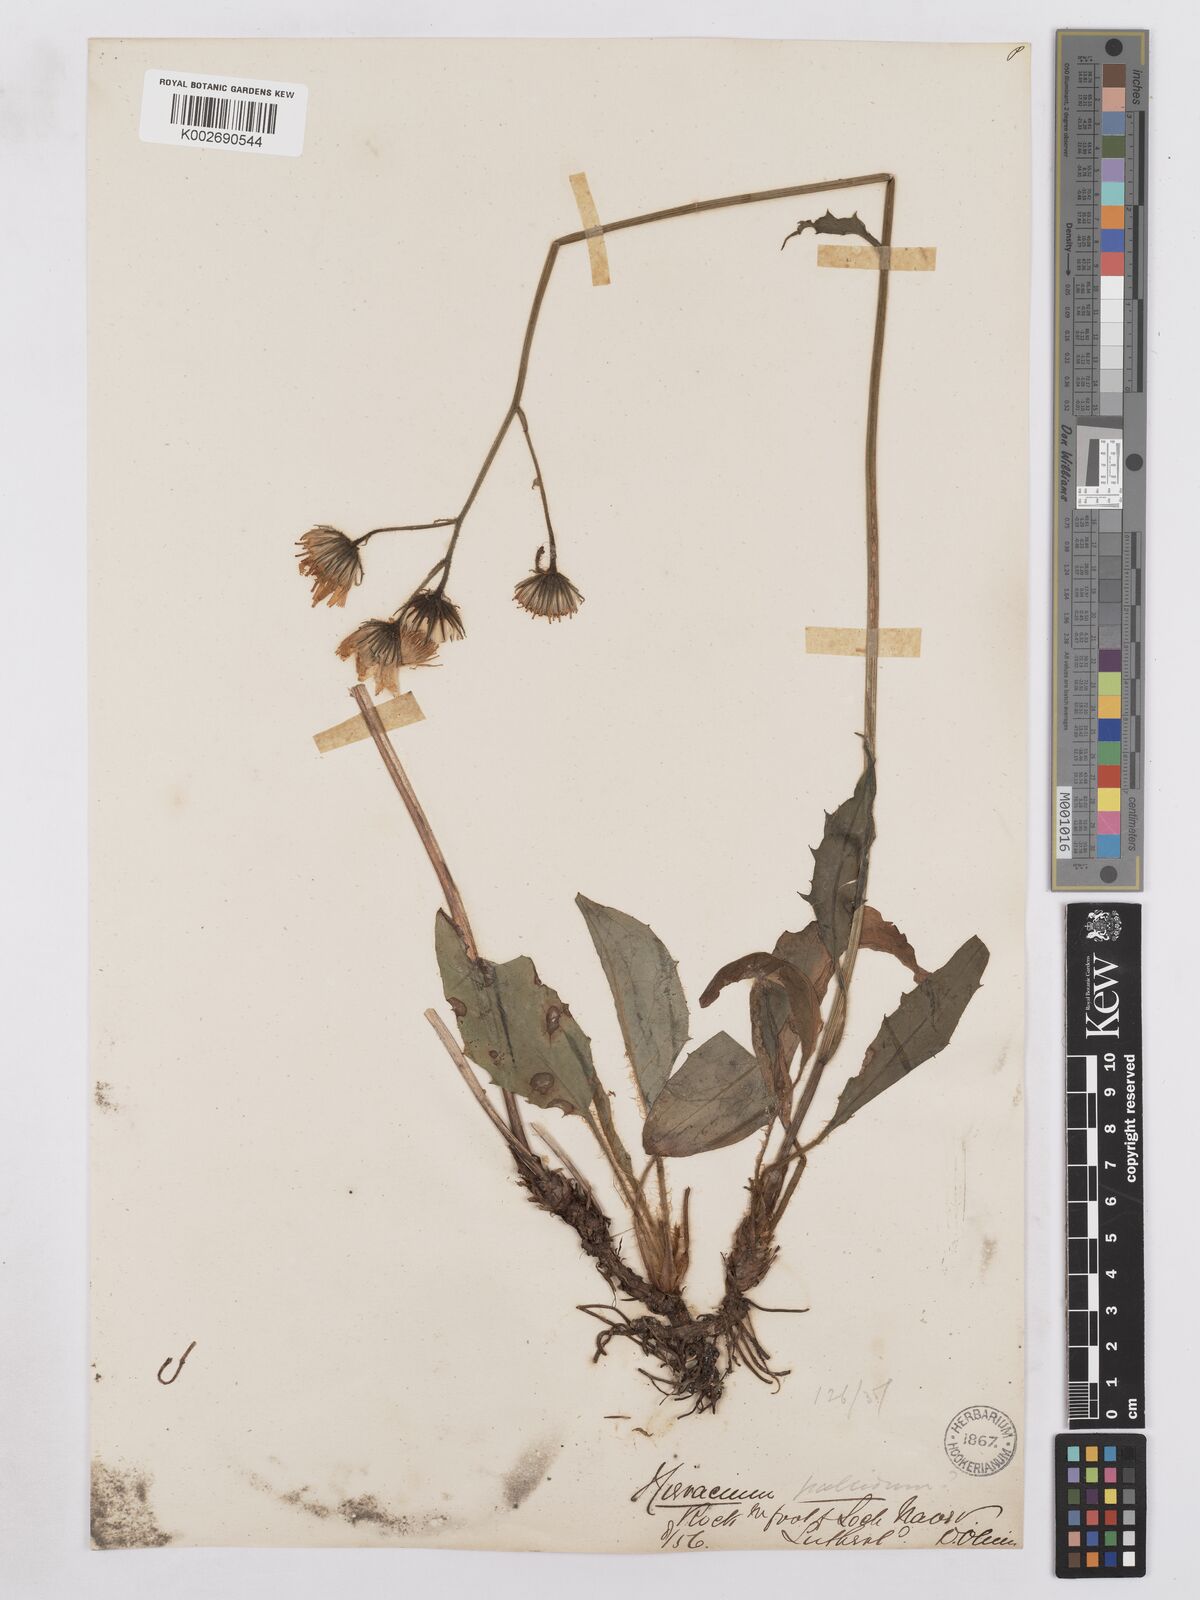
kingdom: Plantae
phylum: Tracheophyta
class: Magnoliopsida
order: Asterales
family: Asteraceae
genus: Hieracium
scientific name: Hieracium schmidtii
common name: Schmidt's hawkweed
